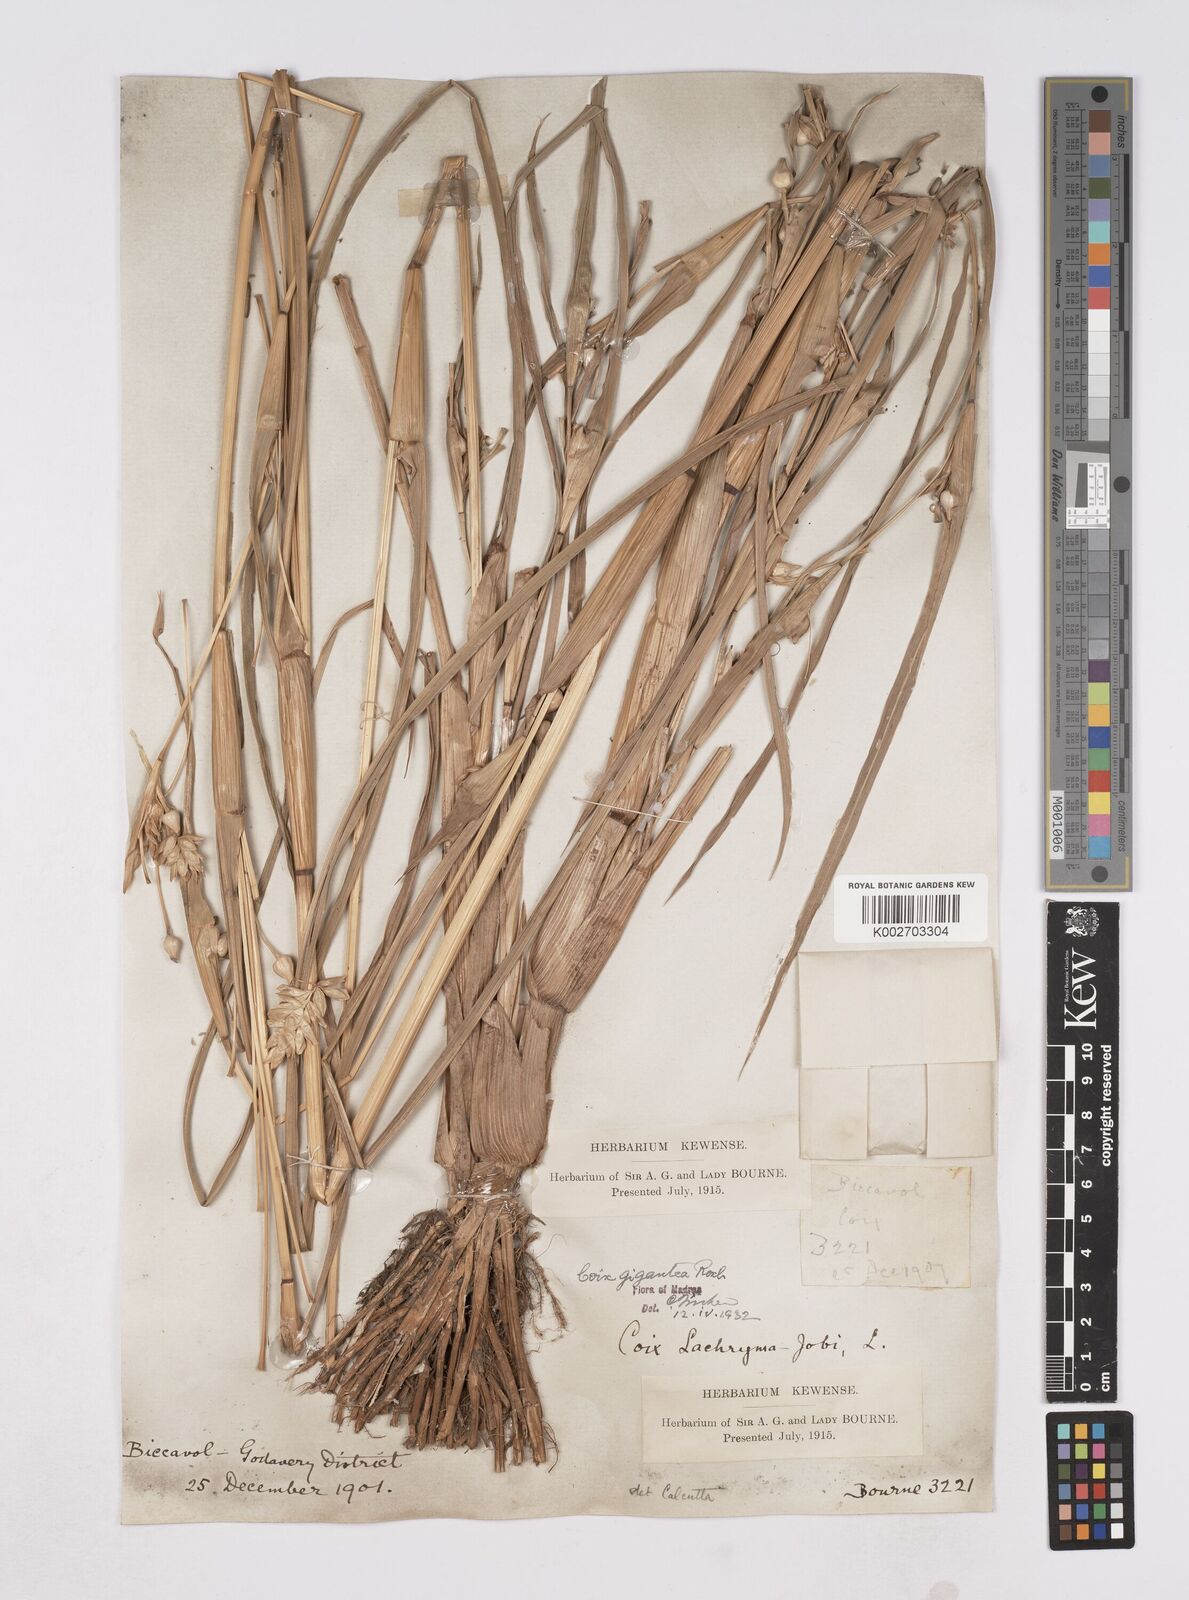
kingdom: Plantae
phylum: Tracheophyta
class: Liliopsida
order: Poales
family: Poaceae
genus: Polytoca
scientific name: Polytoca gigantea
